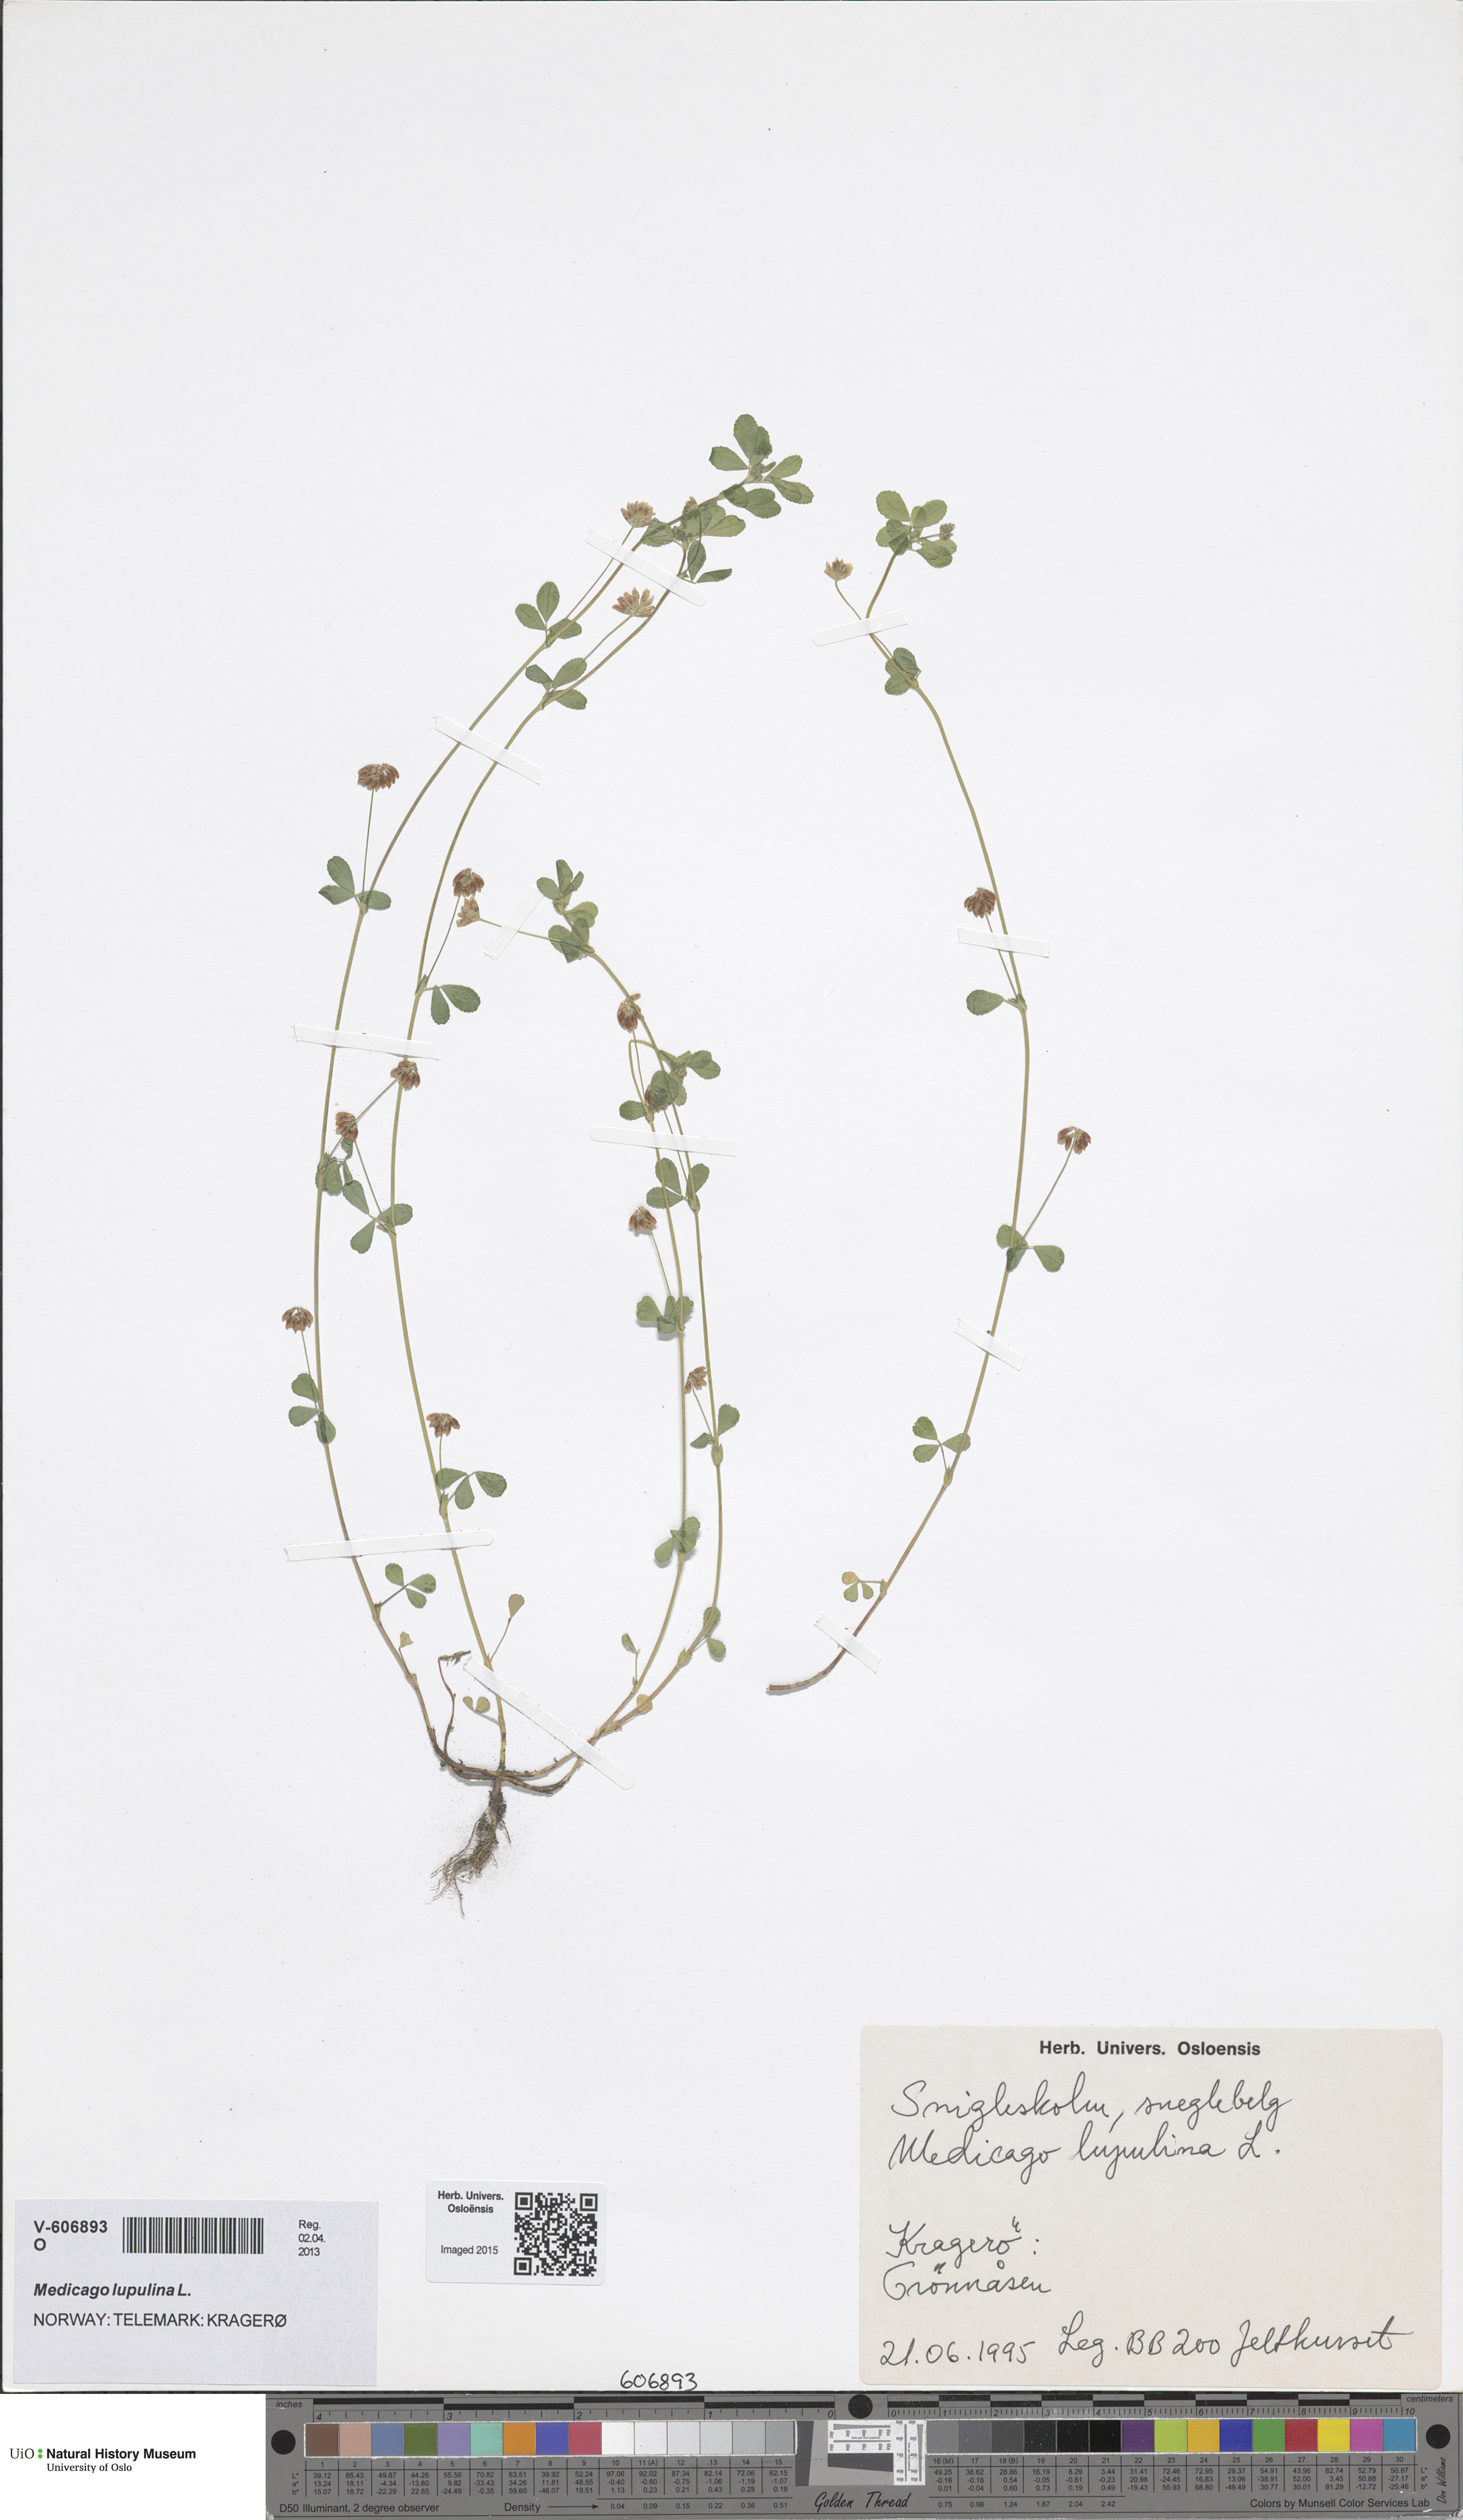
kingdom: Plantae
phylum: Tracheophyta
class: Magnoliopsida
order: Fabales
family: Fabaceae
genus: Trifolium
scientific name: Trifolium dubium
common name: Suckling clover
